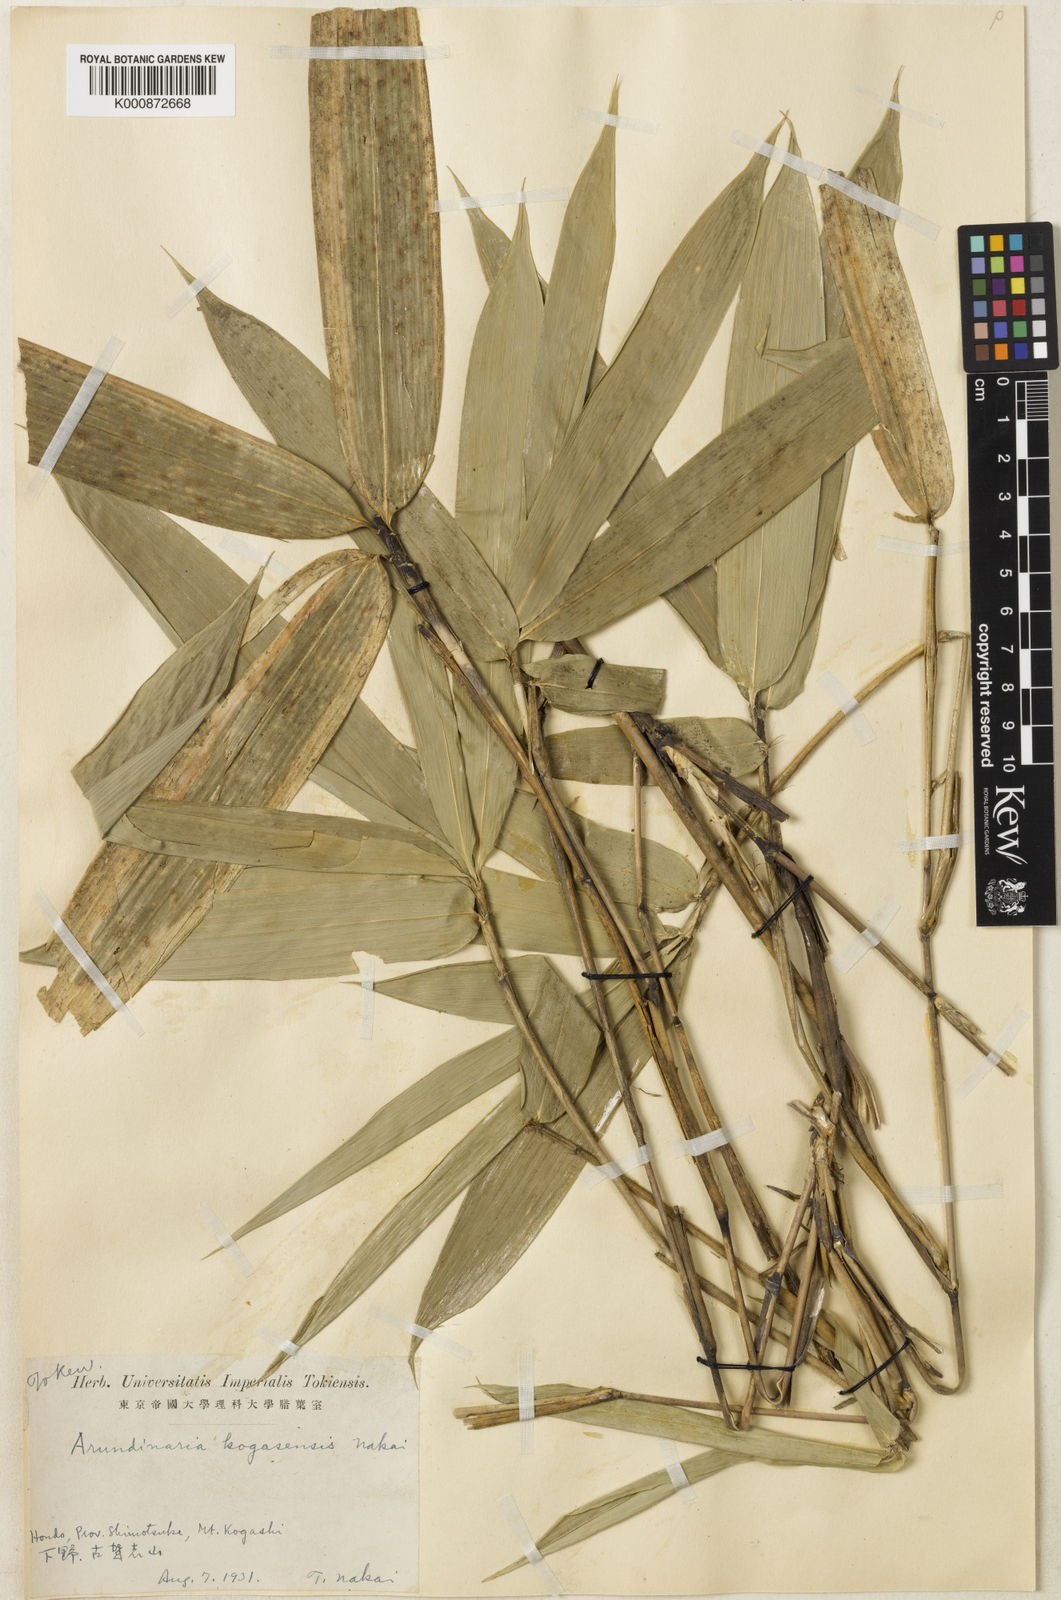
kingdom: Plantae
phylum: Tracheophyta
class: Liliopsida
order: Poales
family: Poaceae
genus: Sasaella
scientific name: Sasaella kogasensis
